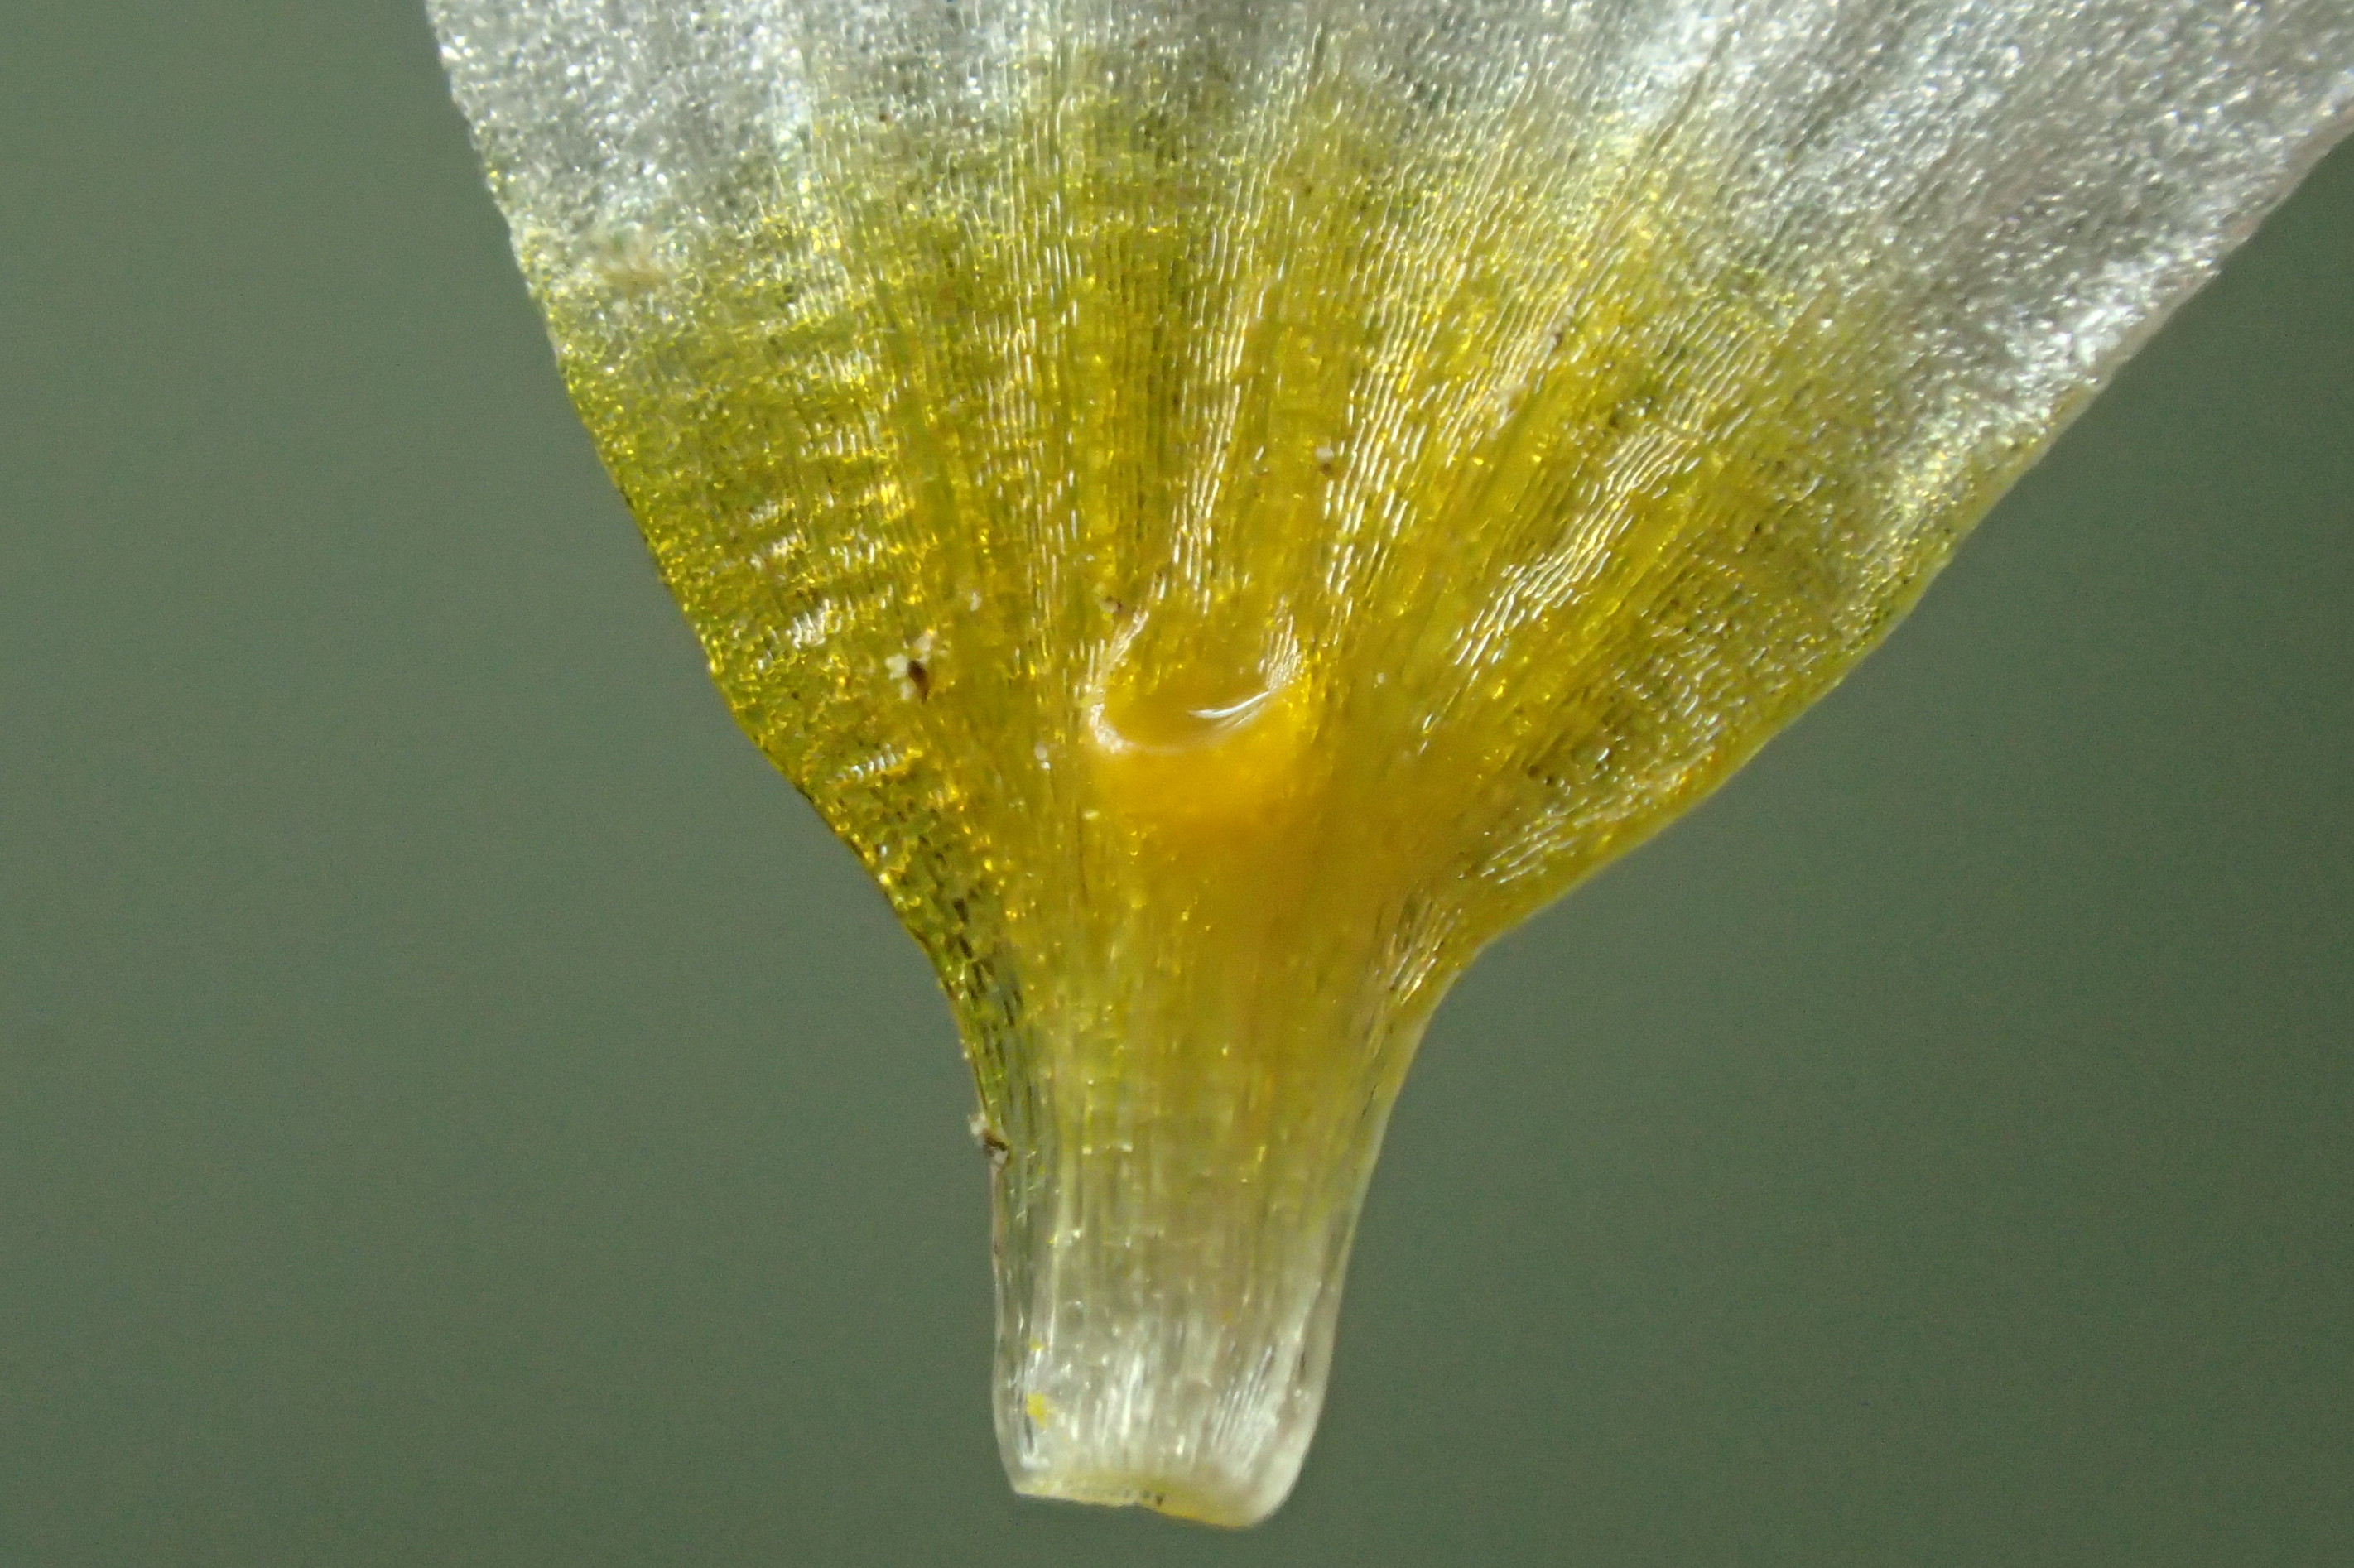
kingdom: Plantae
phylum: Tracheophyta
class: Magnoliopsida
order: Ranunculales
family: Ranunculaceae
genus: Ranunculus
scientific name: Ranunculus peltatus
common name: Strand-vandranunkel
